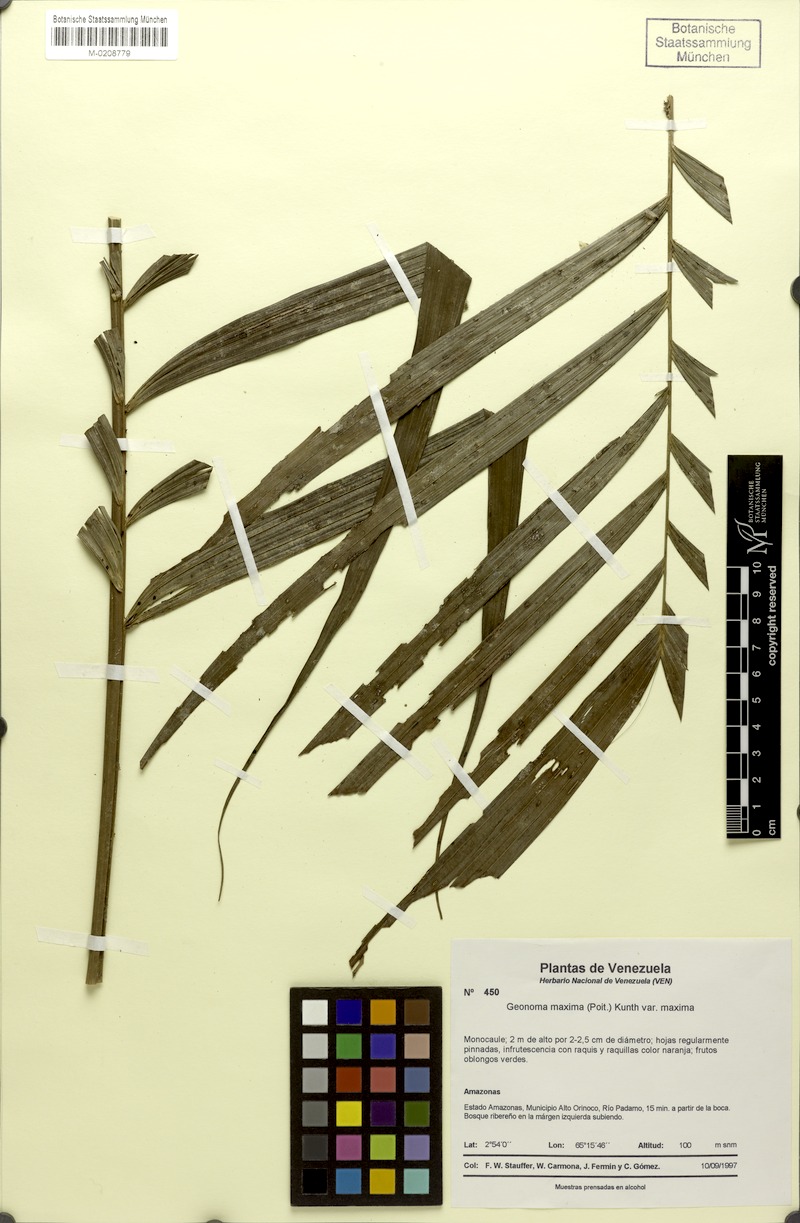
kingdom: Plantae
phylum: Tracheophyta
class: Liliopsida
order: Arecales
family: Arecaceae
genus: Geonoma
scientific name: Geonoma maxima
